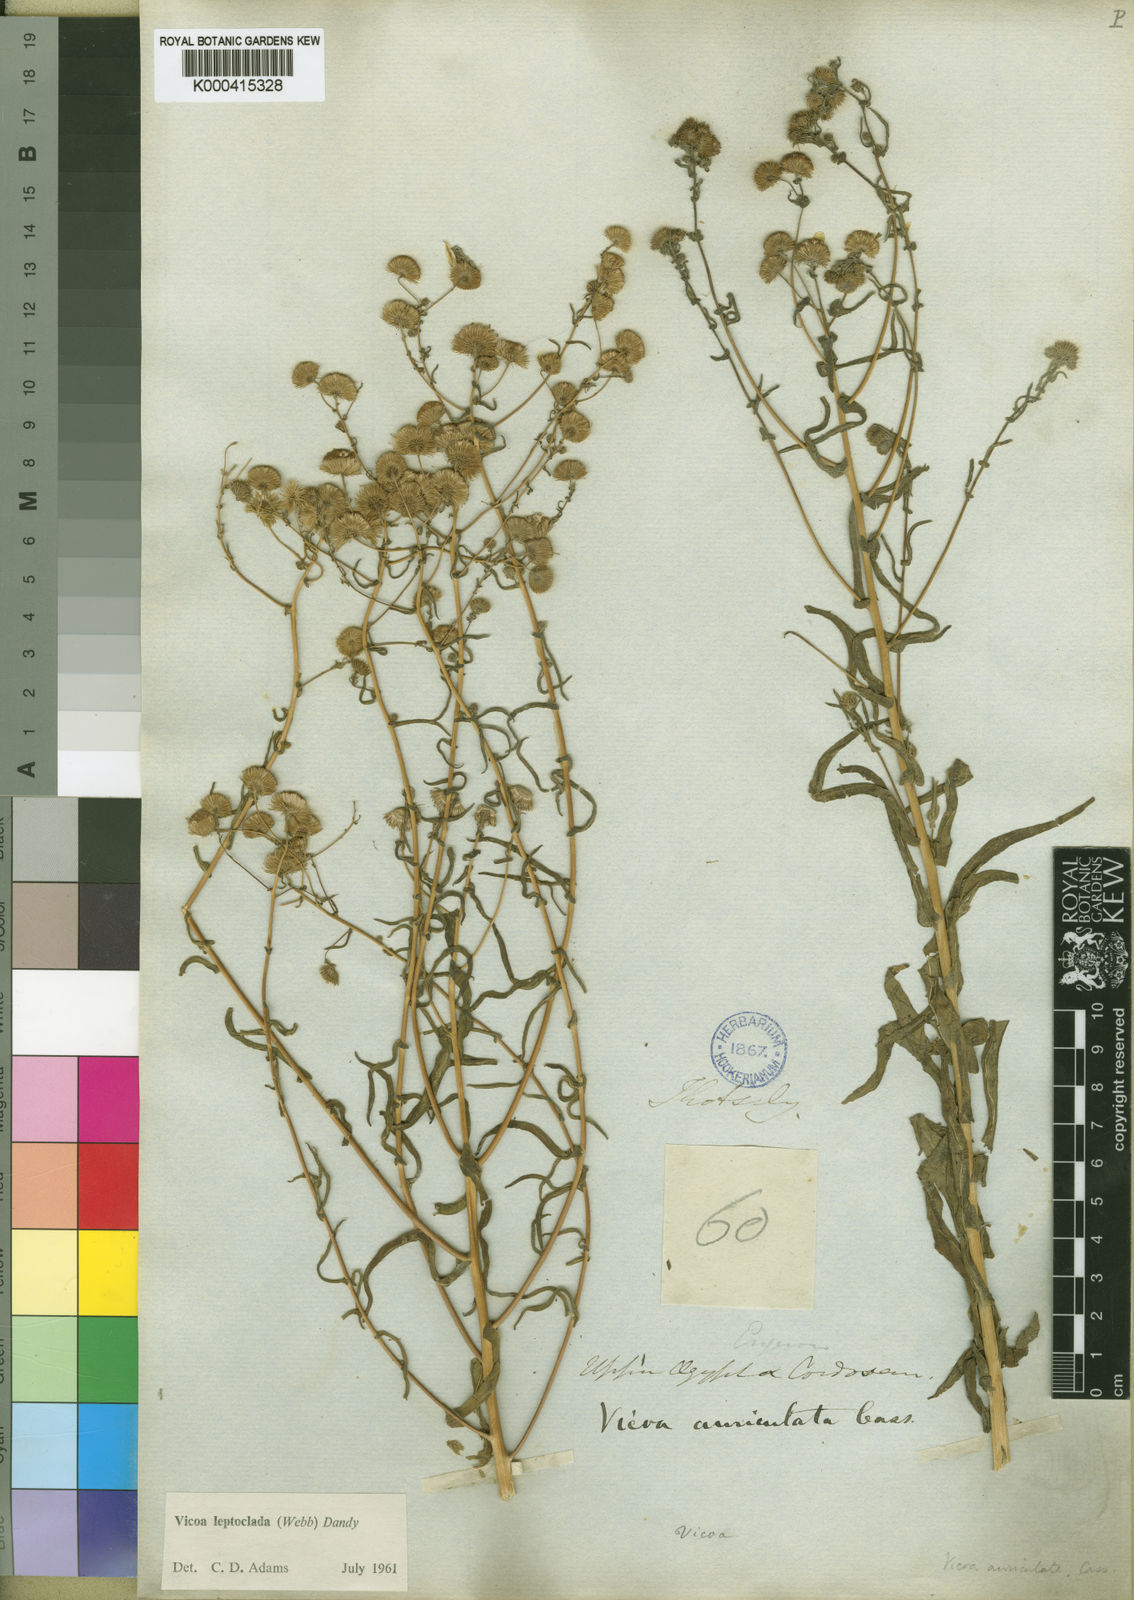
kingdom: Plantae
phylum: Tracheophyta
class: Magnoliopsida
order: Asterales
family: Asteraceae
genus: Vicoa
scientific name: Vicoa indica
